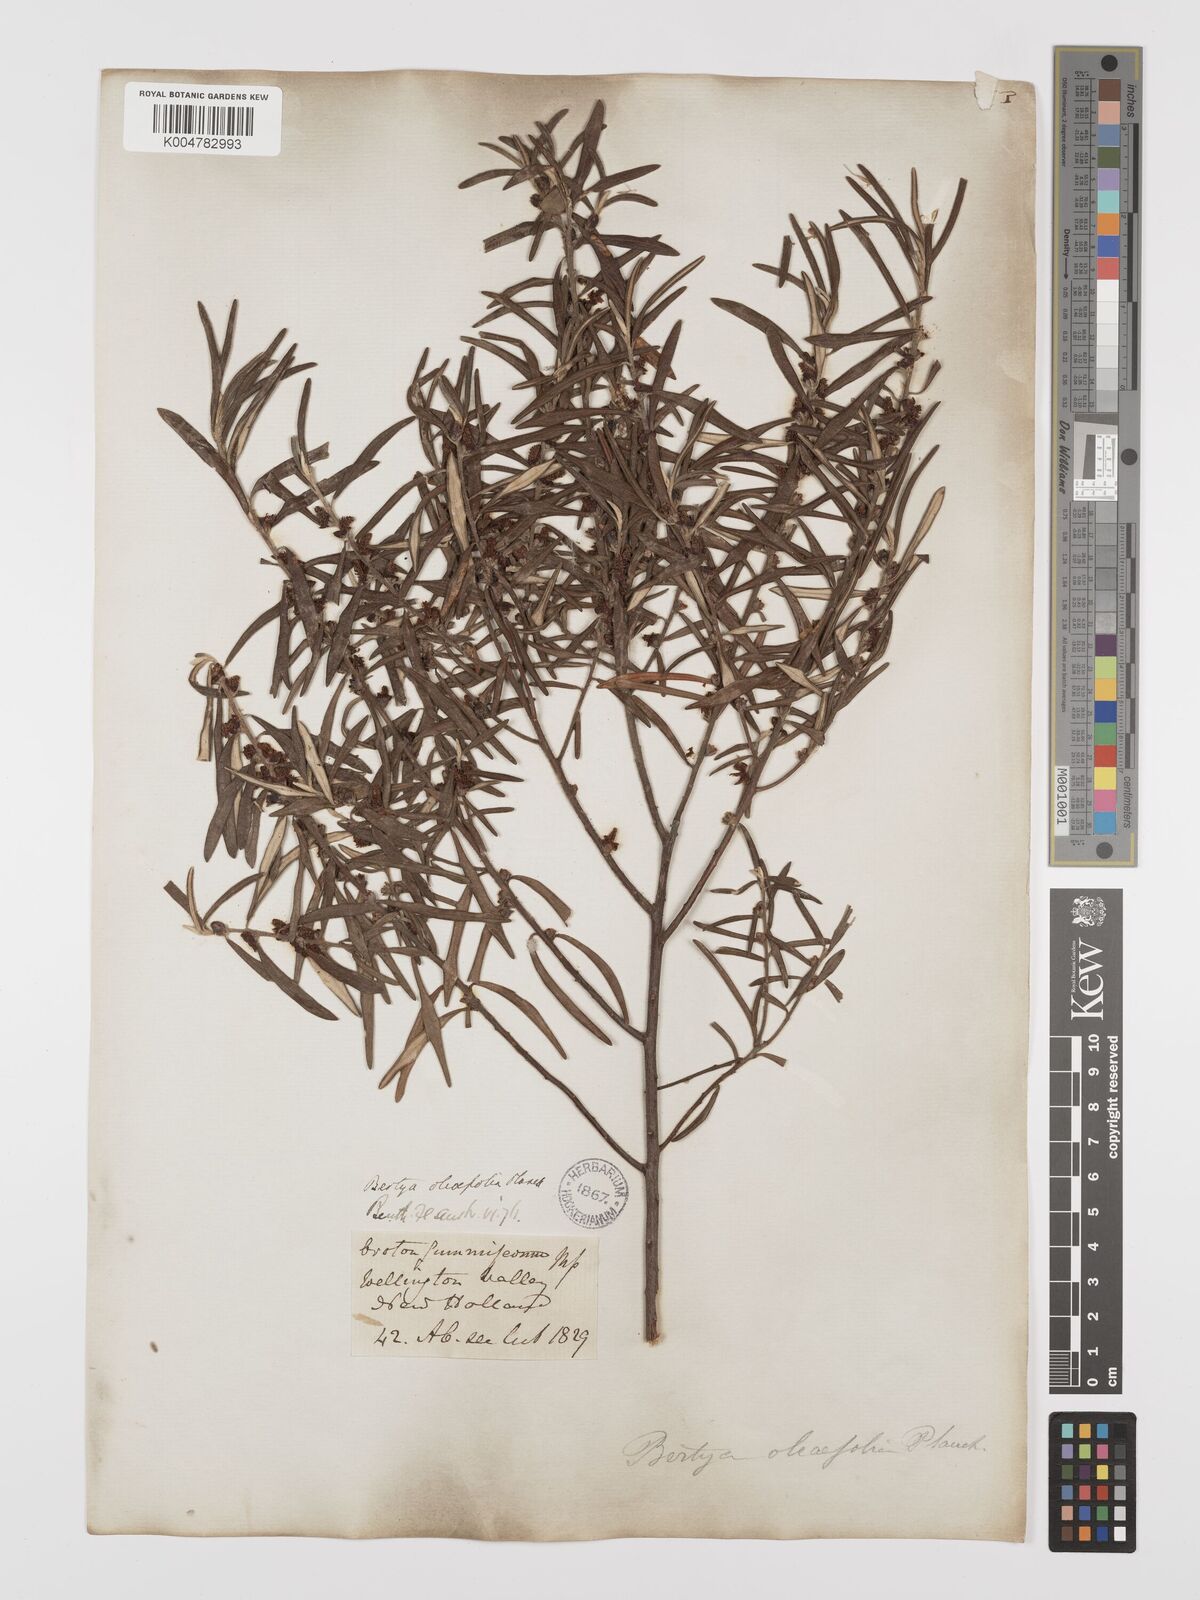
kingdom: Plantae
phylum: Tracheophyta
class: Magnoliopsida
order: Malpighiales
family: Euphorbiaceae
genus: Bertya
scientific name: Bertya oleifolia
